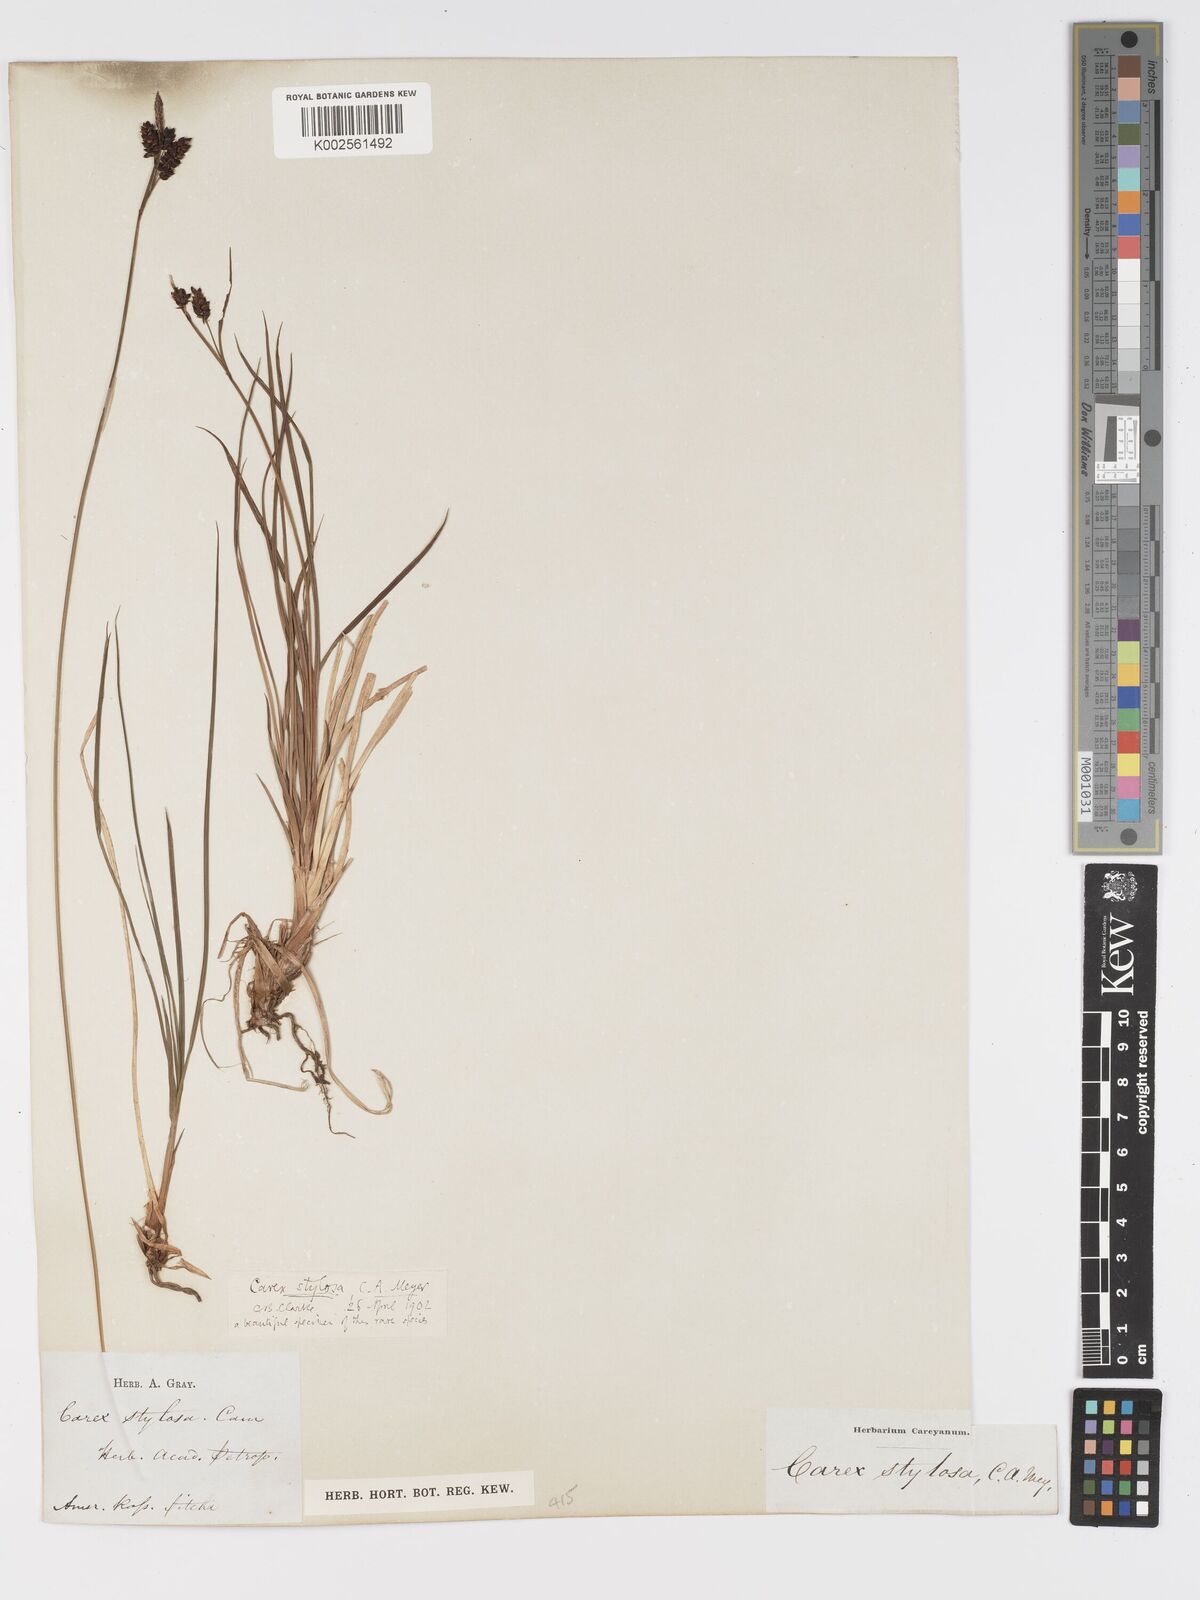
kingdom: Plantae
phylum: Tracheophyta
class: Liliopsida
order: Poales
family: Cyperaceae
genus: Carex
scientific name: Carex stylosa
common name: Long-styled sedge
